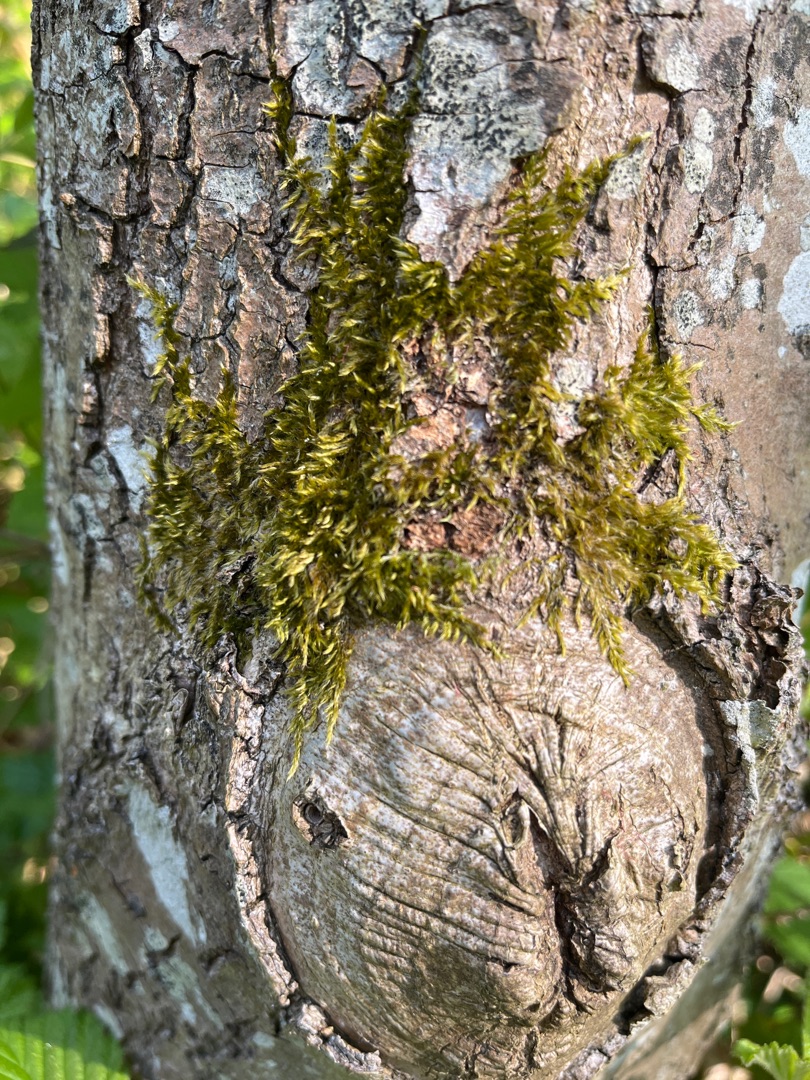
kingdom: Plantae
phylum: Bryophyta
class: Bryopsida
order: Hypnales
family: Hypnaceae
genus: Hypnum
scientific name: Hypnum
